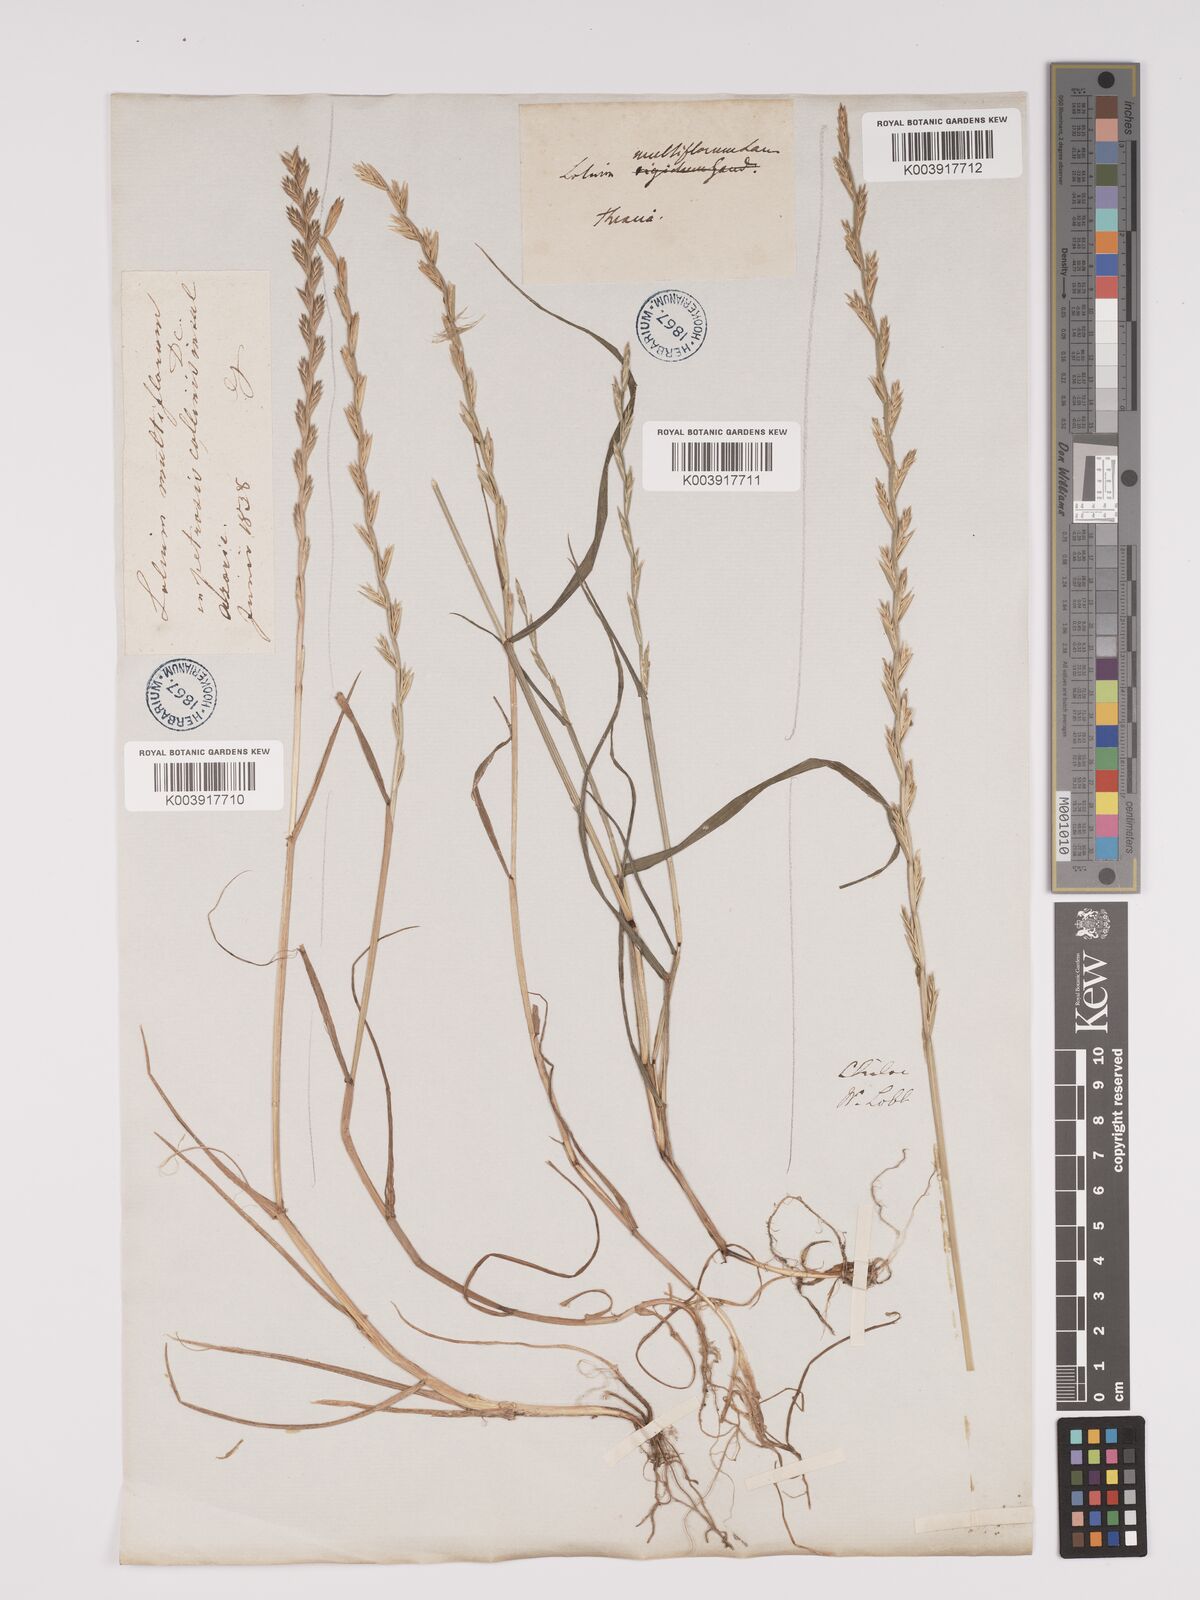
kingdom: Plantae
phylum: Tracheophyta
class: Liliopsida
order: Poales
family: Poaceae
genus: Lolium
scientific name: Lolium multiflorum
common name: Annual ryegrass
